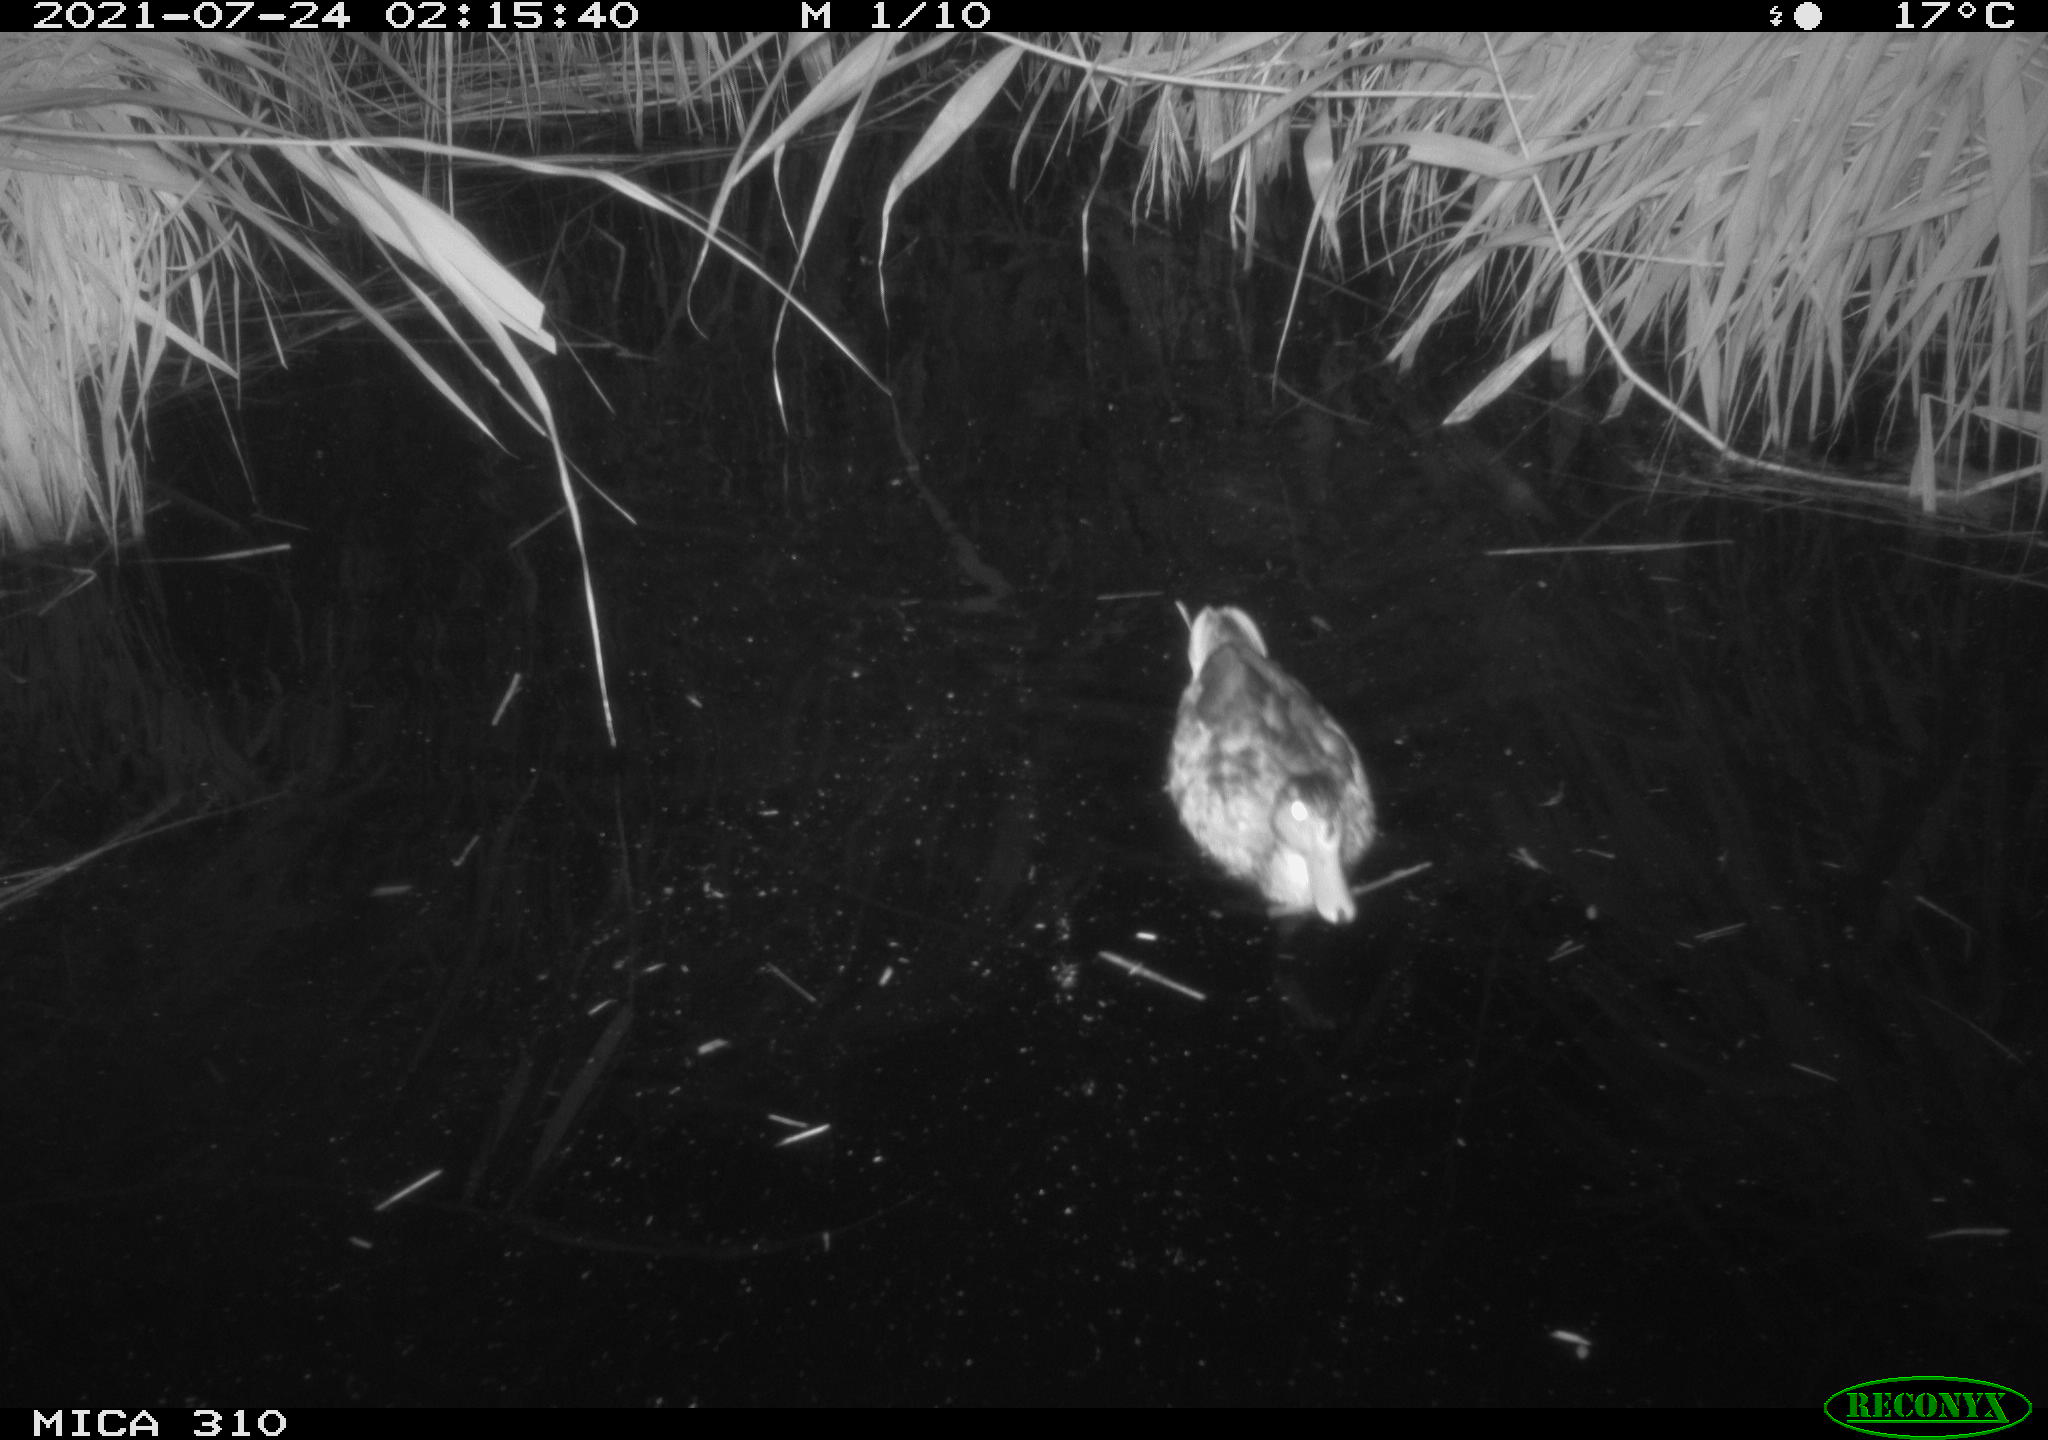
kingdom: Animalia
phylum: Chordata
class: Aves
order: Anseriformes
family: Anatidae
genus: Anas
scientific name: Anas platyrhynchos
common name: Mallard
